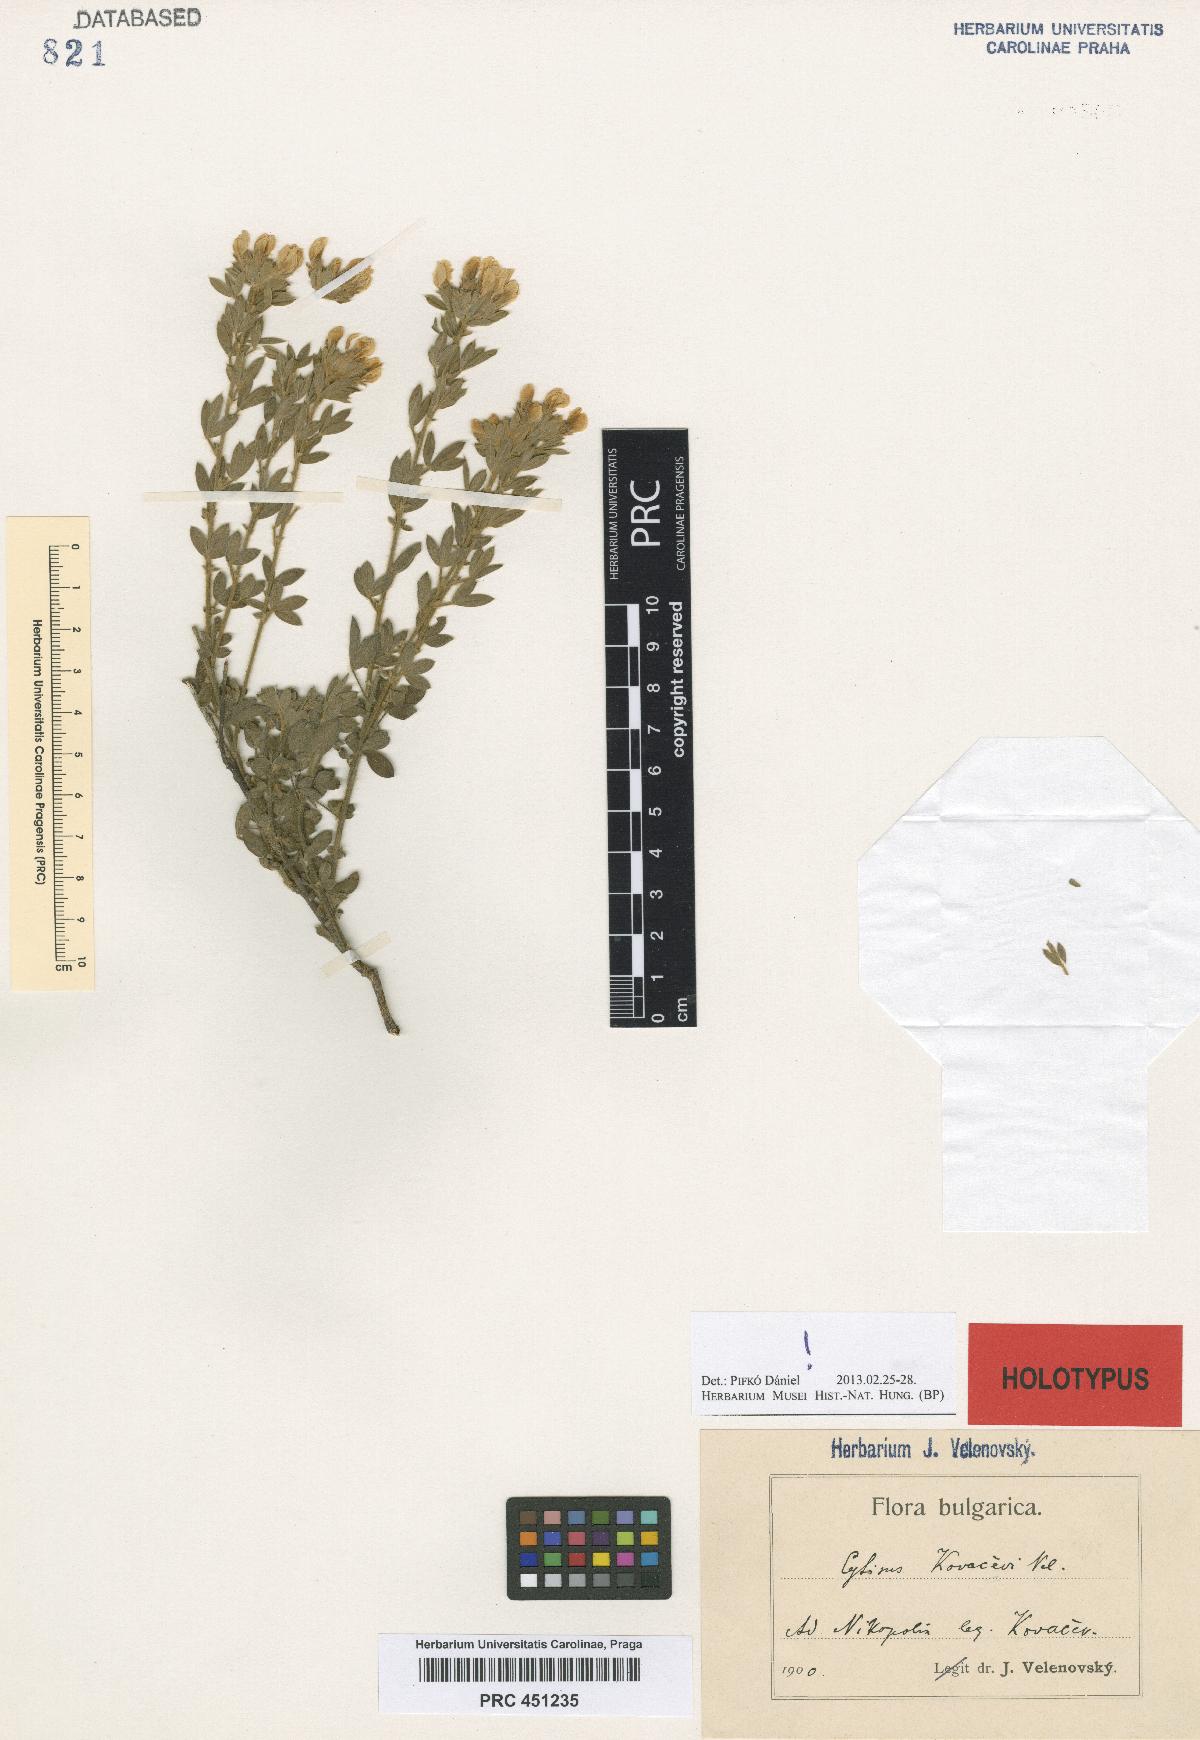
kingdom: Plantae
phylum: Tracheophyta
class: Magnoliopsida
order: Fabales
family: Fabaceae
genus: Chamaecytisus
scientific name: Chamaecytisus kovacevii
